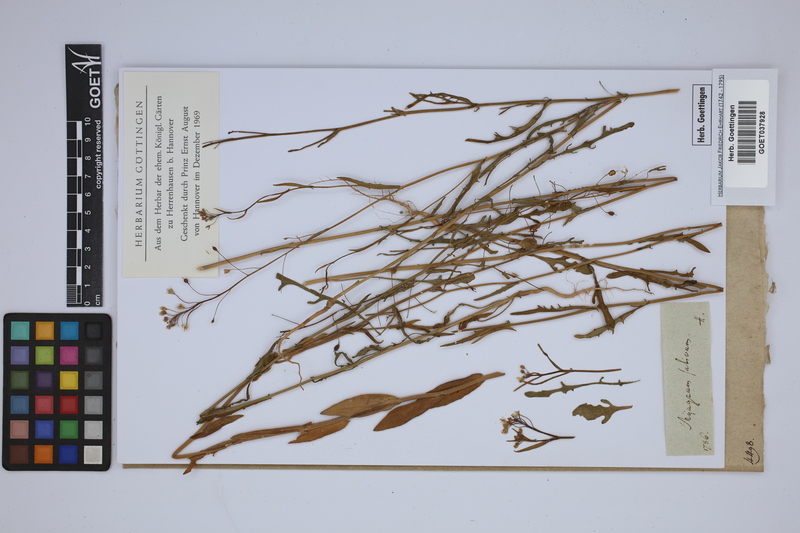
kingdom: Plantae
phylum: Tracheophyta
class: Magnoliopsida
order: Brassicales
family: Brassicaceae
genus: Camelina
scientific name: Camelina sativa
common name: Gold-of-pleasure
